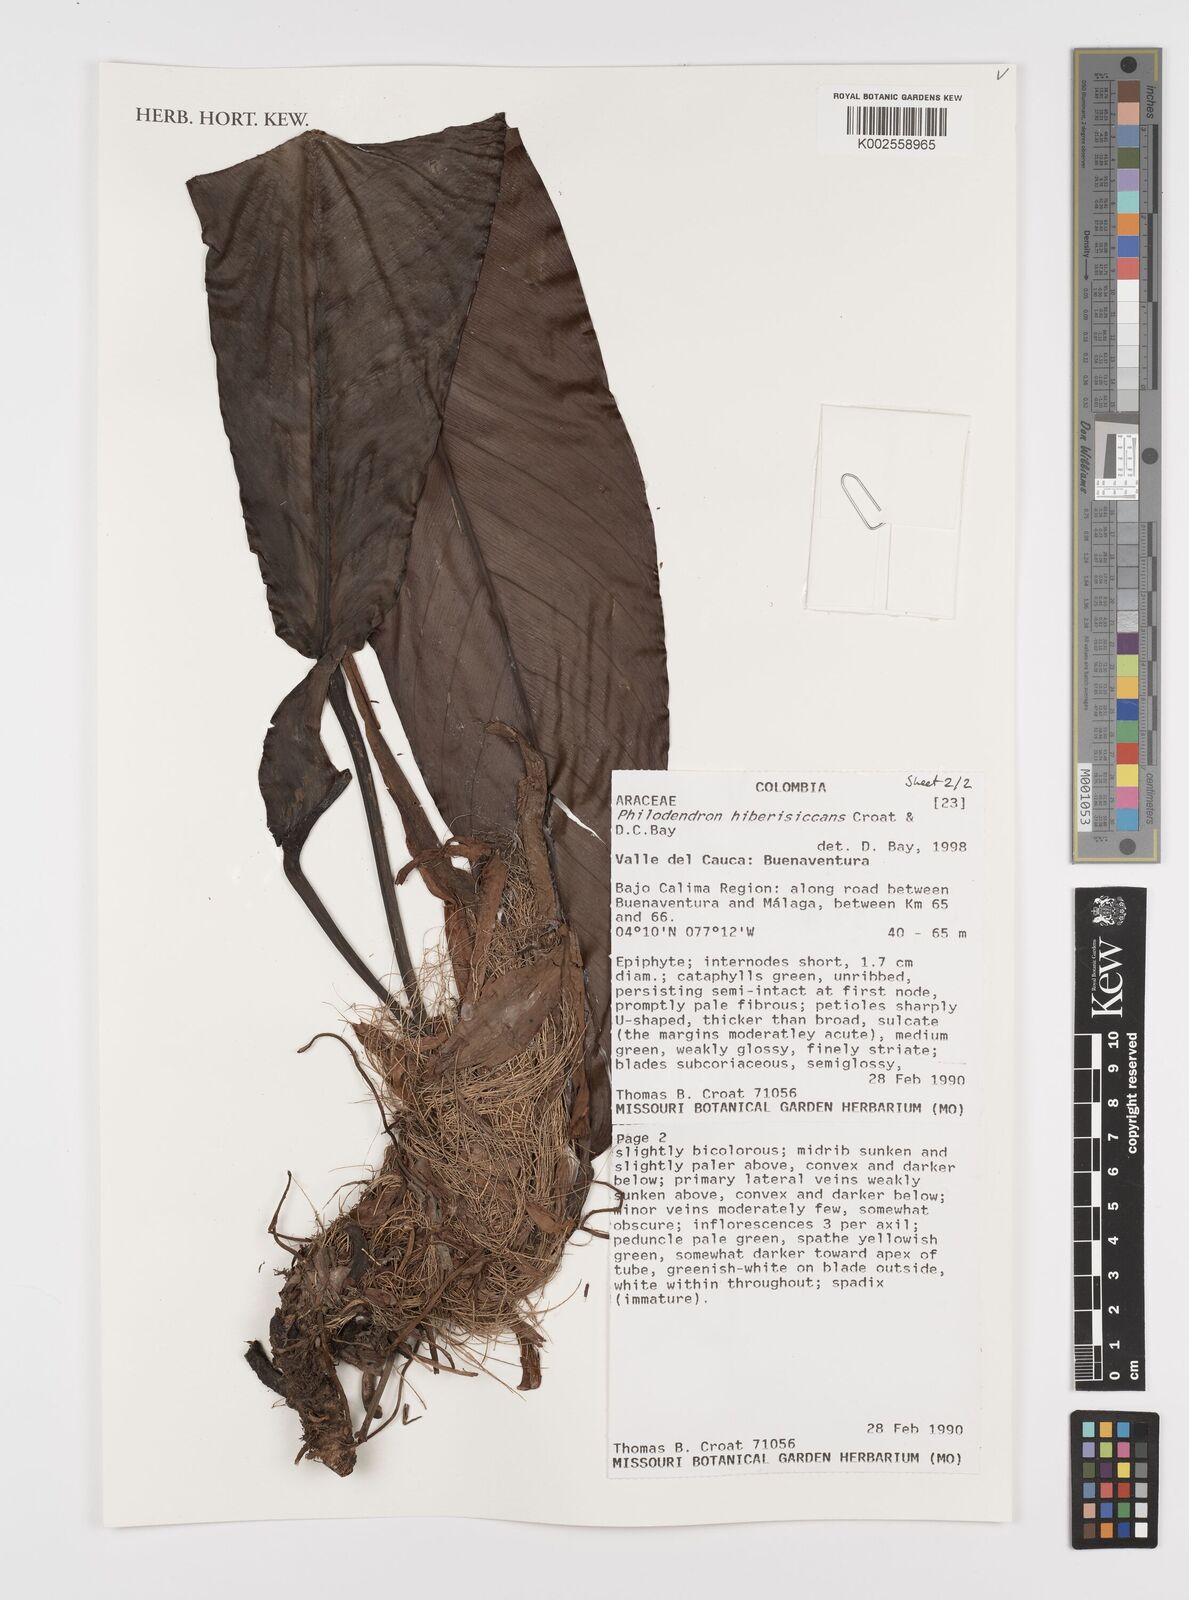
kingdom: Plantae
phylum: Tracheophyta
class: Liliopsida
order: Alismatales
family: Araceae
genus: Philodendron
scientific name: Philodendron hiberisiccans
